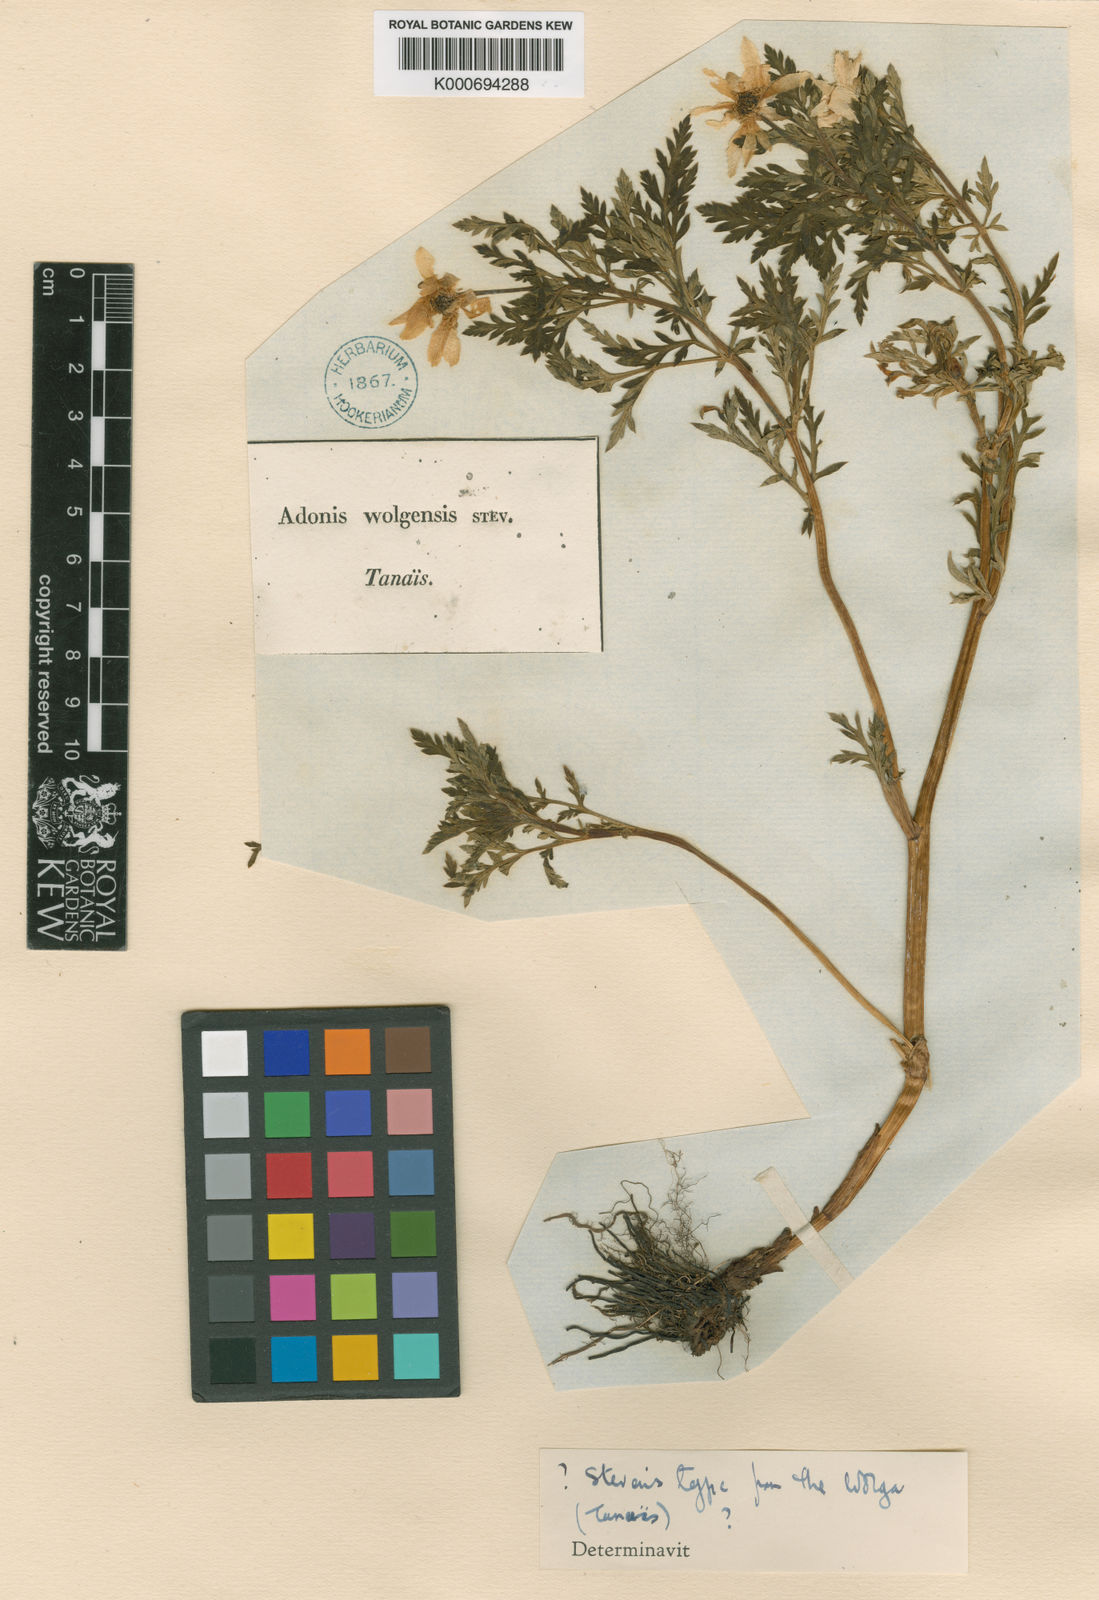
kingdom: Plantae
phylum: Tracheophyta
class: Magnoliopsida
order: Ranunculales
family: Ranunculaceae
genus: Adonis
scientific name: Adonis
